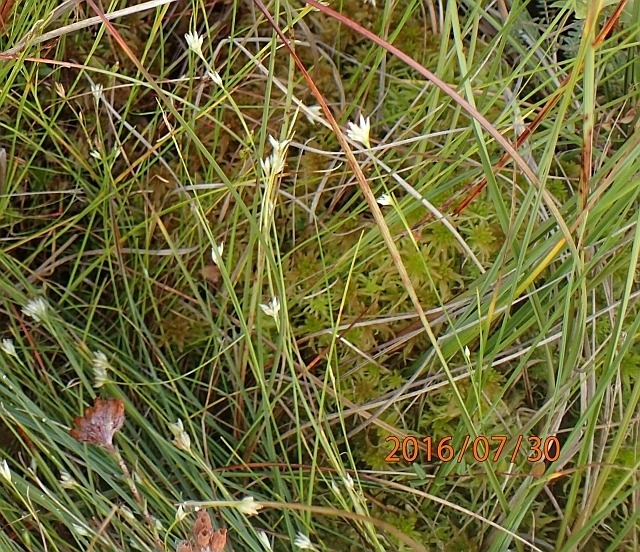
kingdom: Plantae
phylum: Tracheophyta
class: Liliopsida
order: Poales
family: Cyperaceae
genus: Rhynchospora
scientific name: Rhynchospora alba
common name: Hvid næbfrø
